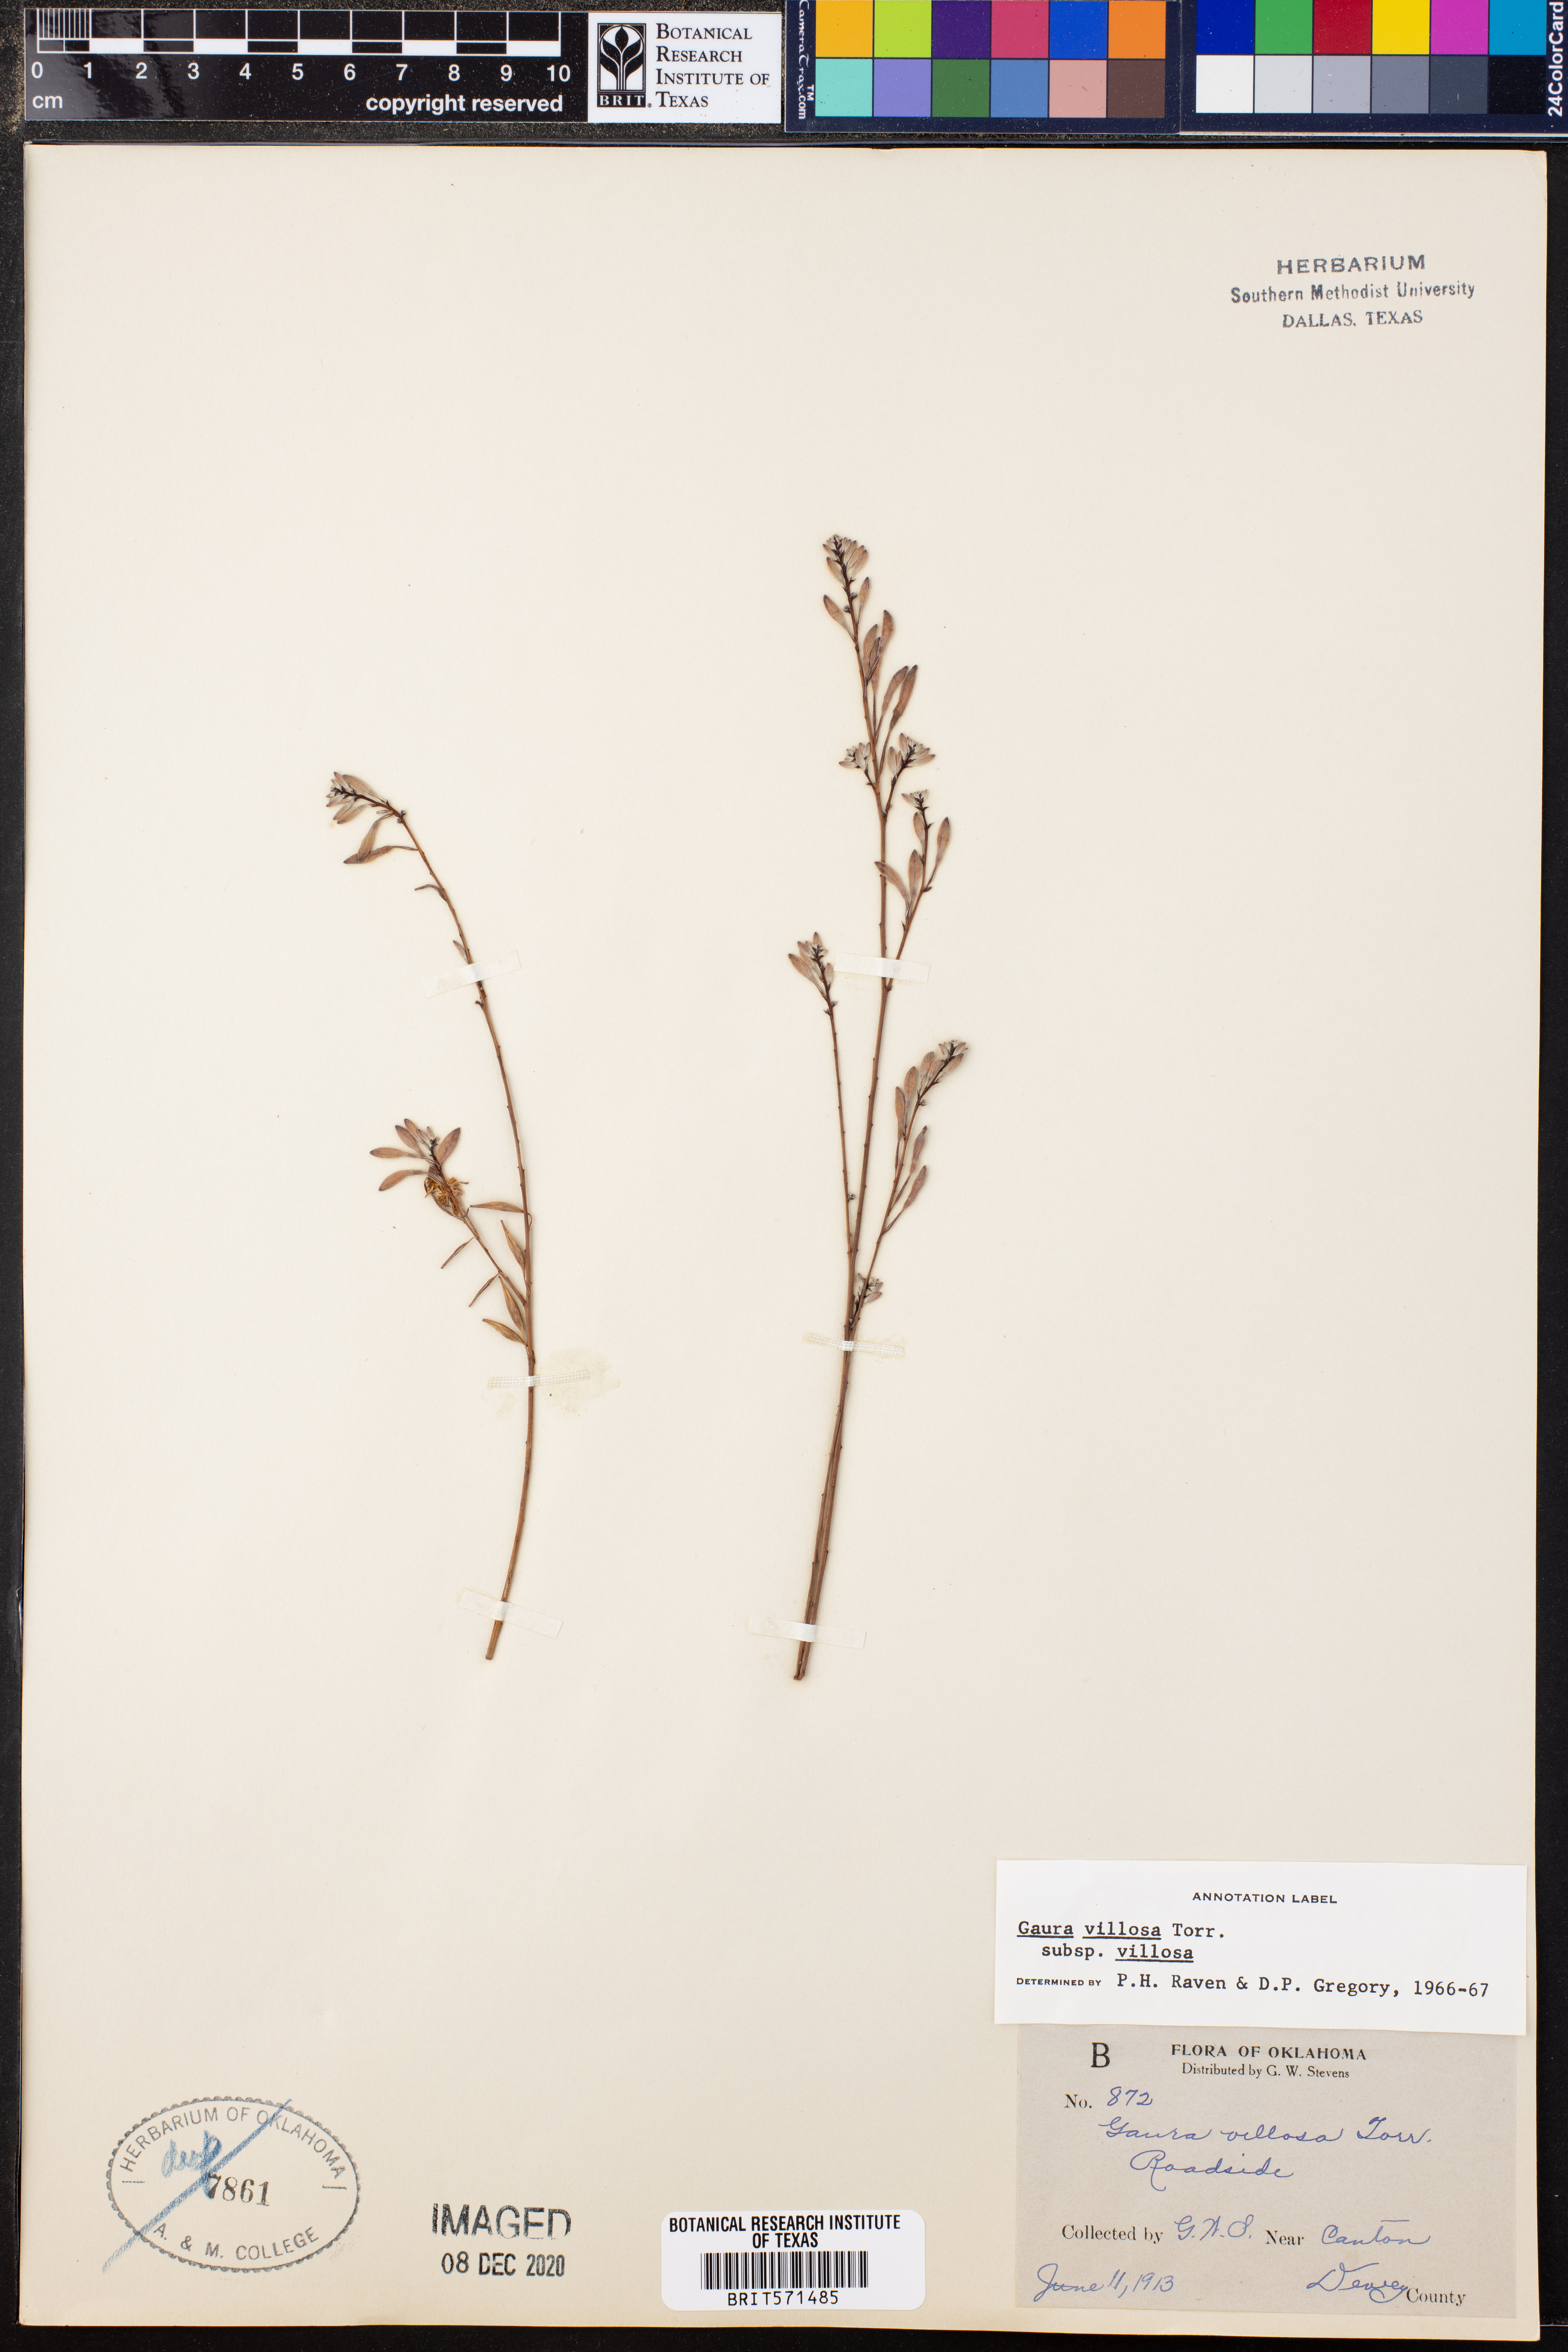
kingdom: Plantae
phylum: Tracheophyta
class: Magnoliopsida
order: Myrtales
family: Onagraceae
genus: Oenothera
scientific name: Oenothera cinerea
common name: Woolly beeblossom
